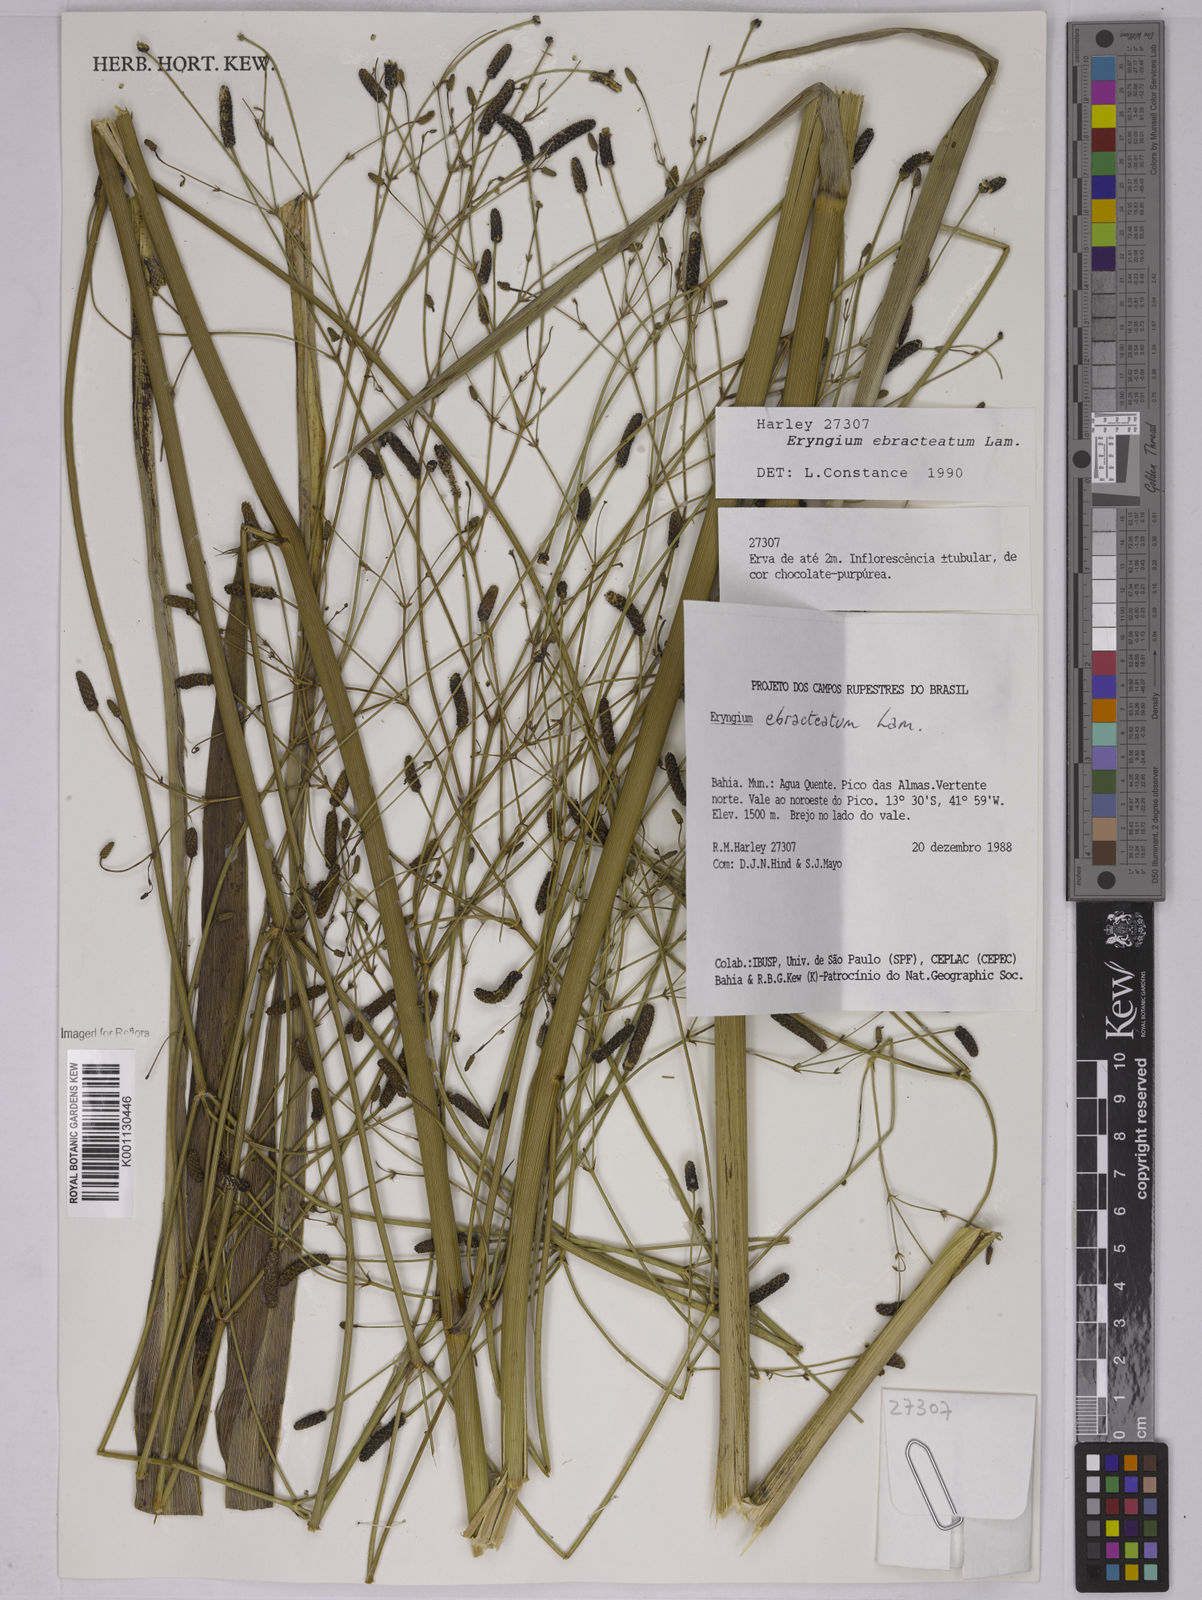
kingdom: Plantae
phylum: Tracheophyta
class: Magnoliopsida
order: Apiales
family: Apiaceae
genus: Eryngium
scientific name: Eryngium ebracteatum
